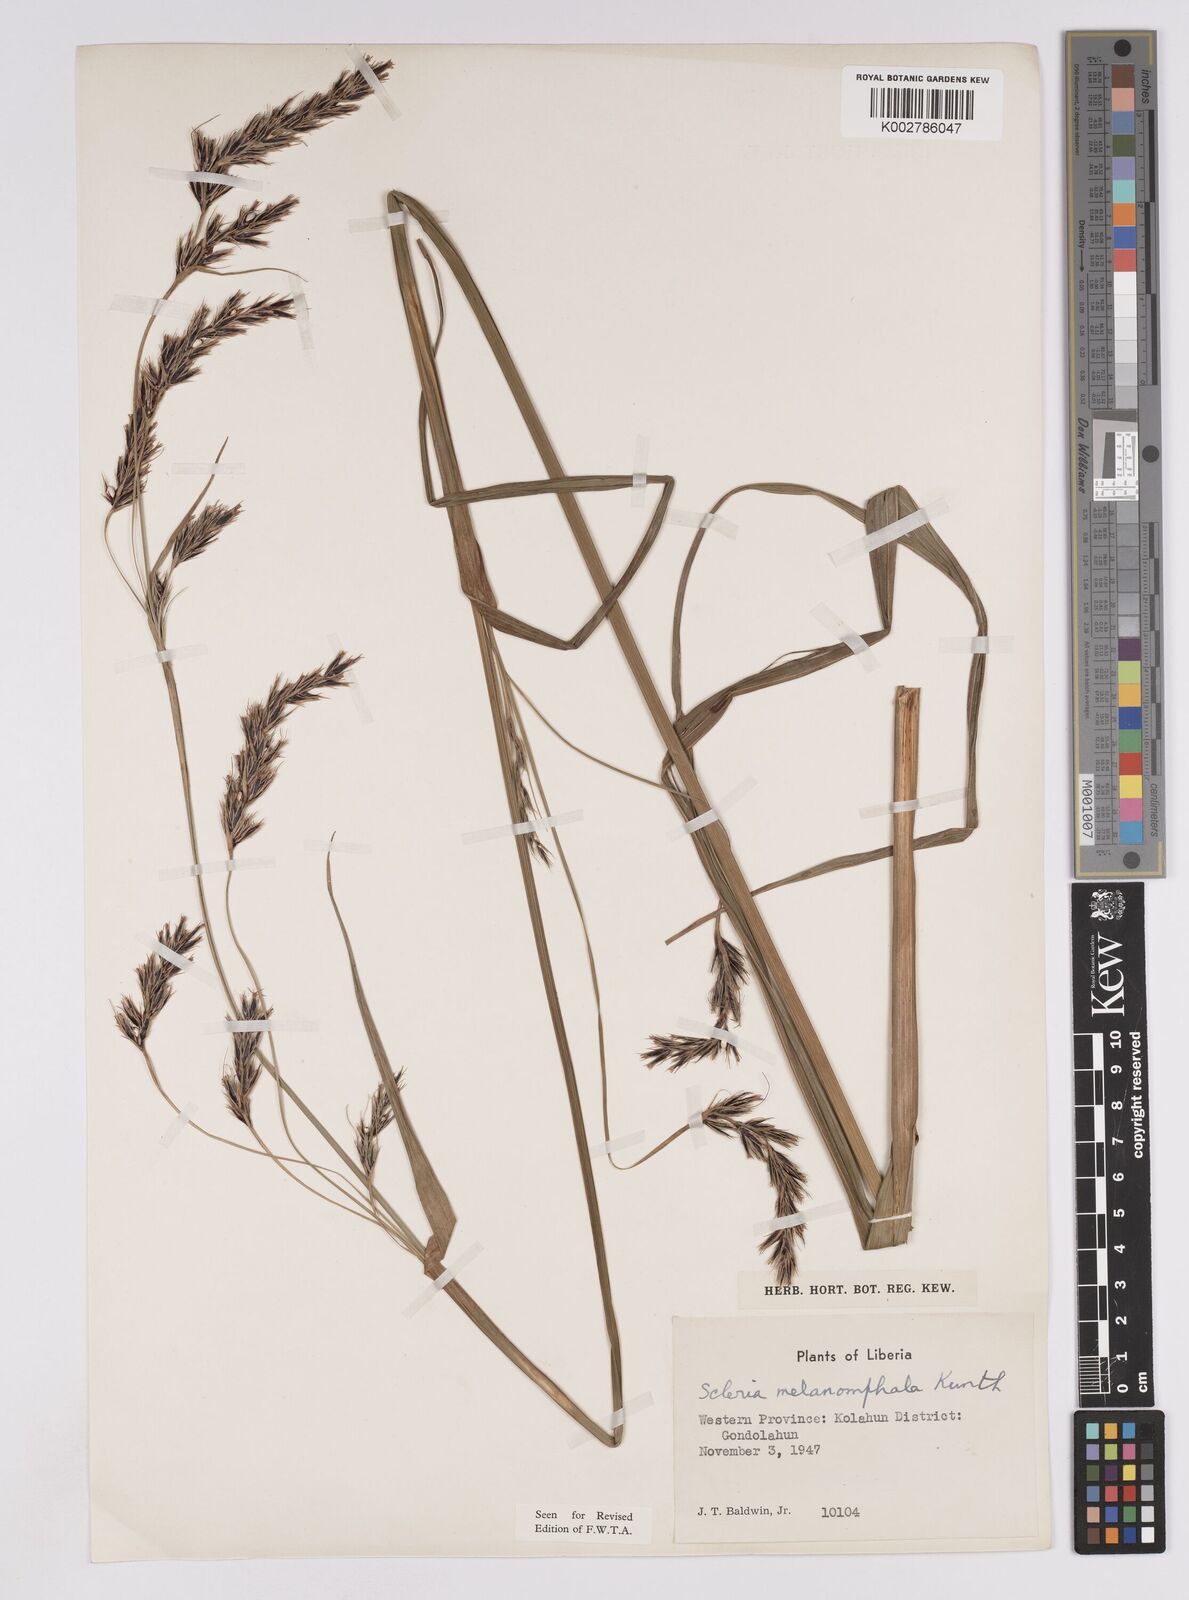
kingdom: Plantae
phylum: Tracheophyta
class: Liliopsida
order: Poales
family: Cyperaceae
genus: Scleria
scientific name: Scleria melanomphala
